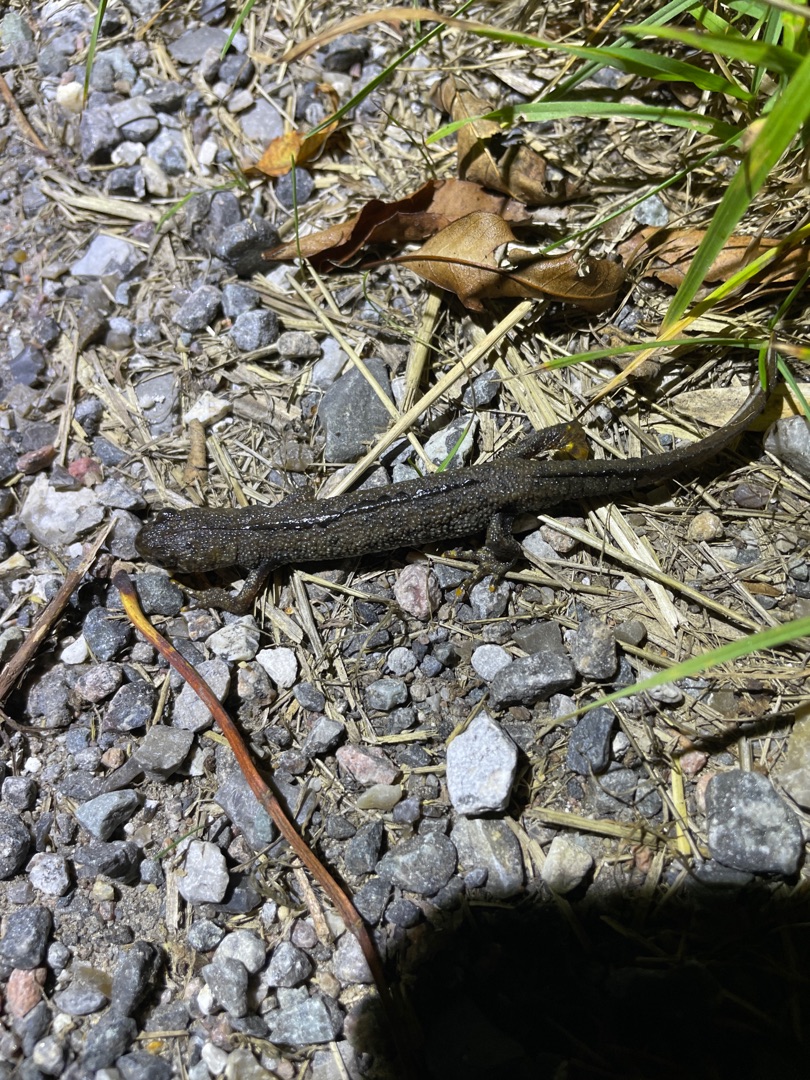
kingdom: Animalia
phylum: Chordata
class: Amphibia
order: Caudata
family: Salamandridae
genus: Triturus
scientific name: Triturus cristatus
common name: Stor vandsalamander
